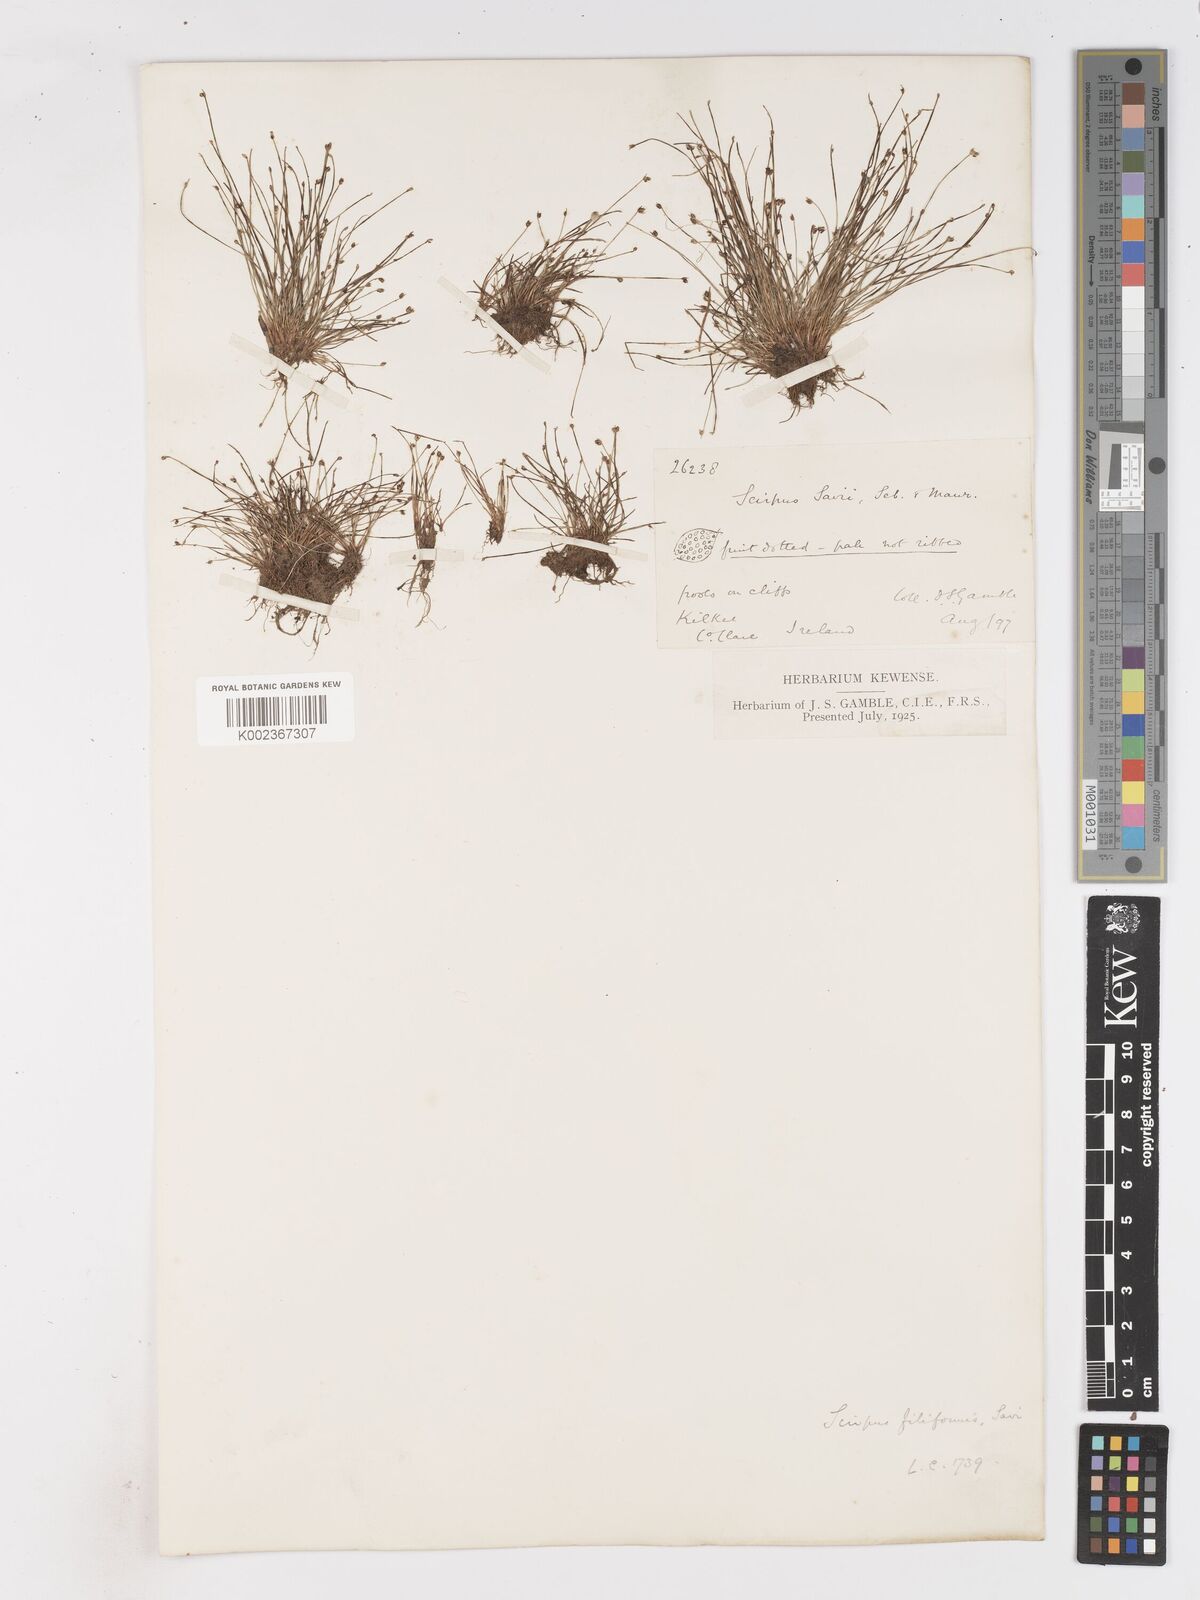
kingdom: Plantae
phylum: Tracheophyta
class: Liliopsida
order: Poales
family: Cyperaceae
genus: Isolepis
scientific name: Isolepis cernua
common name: Slender club-rush
